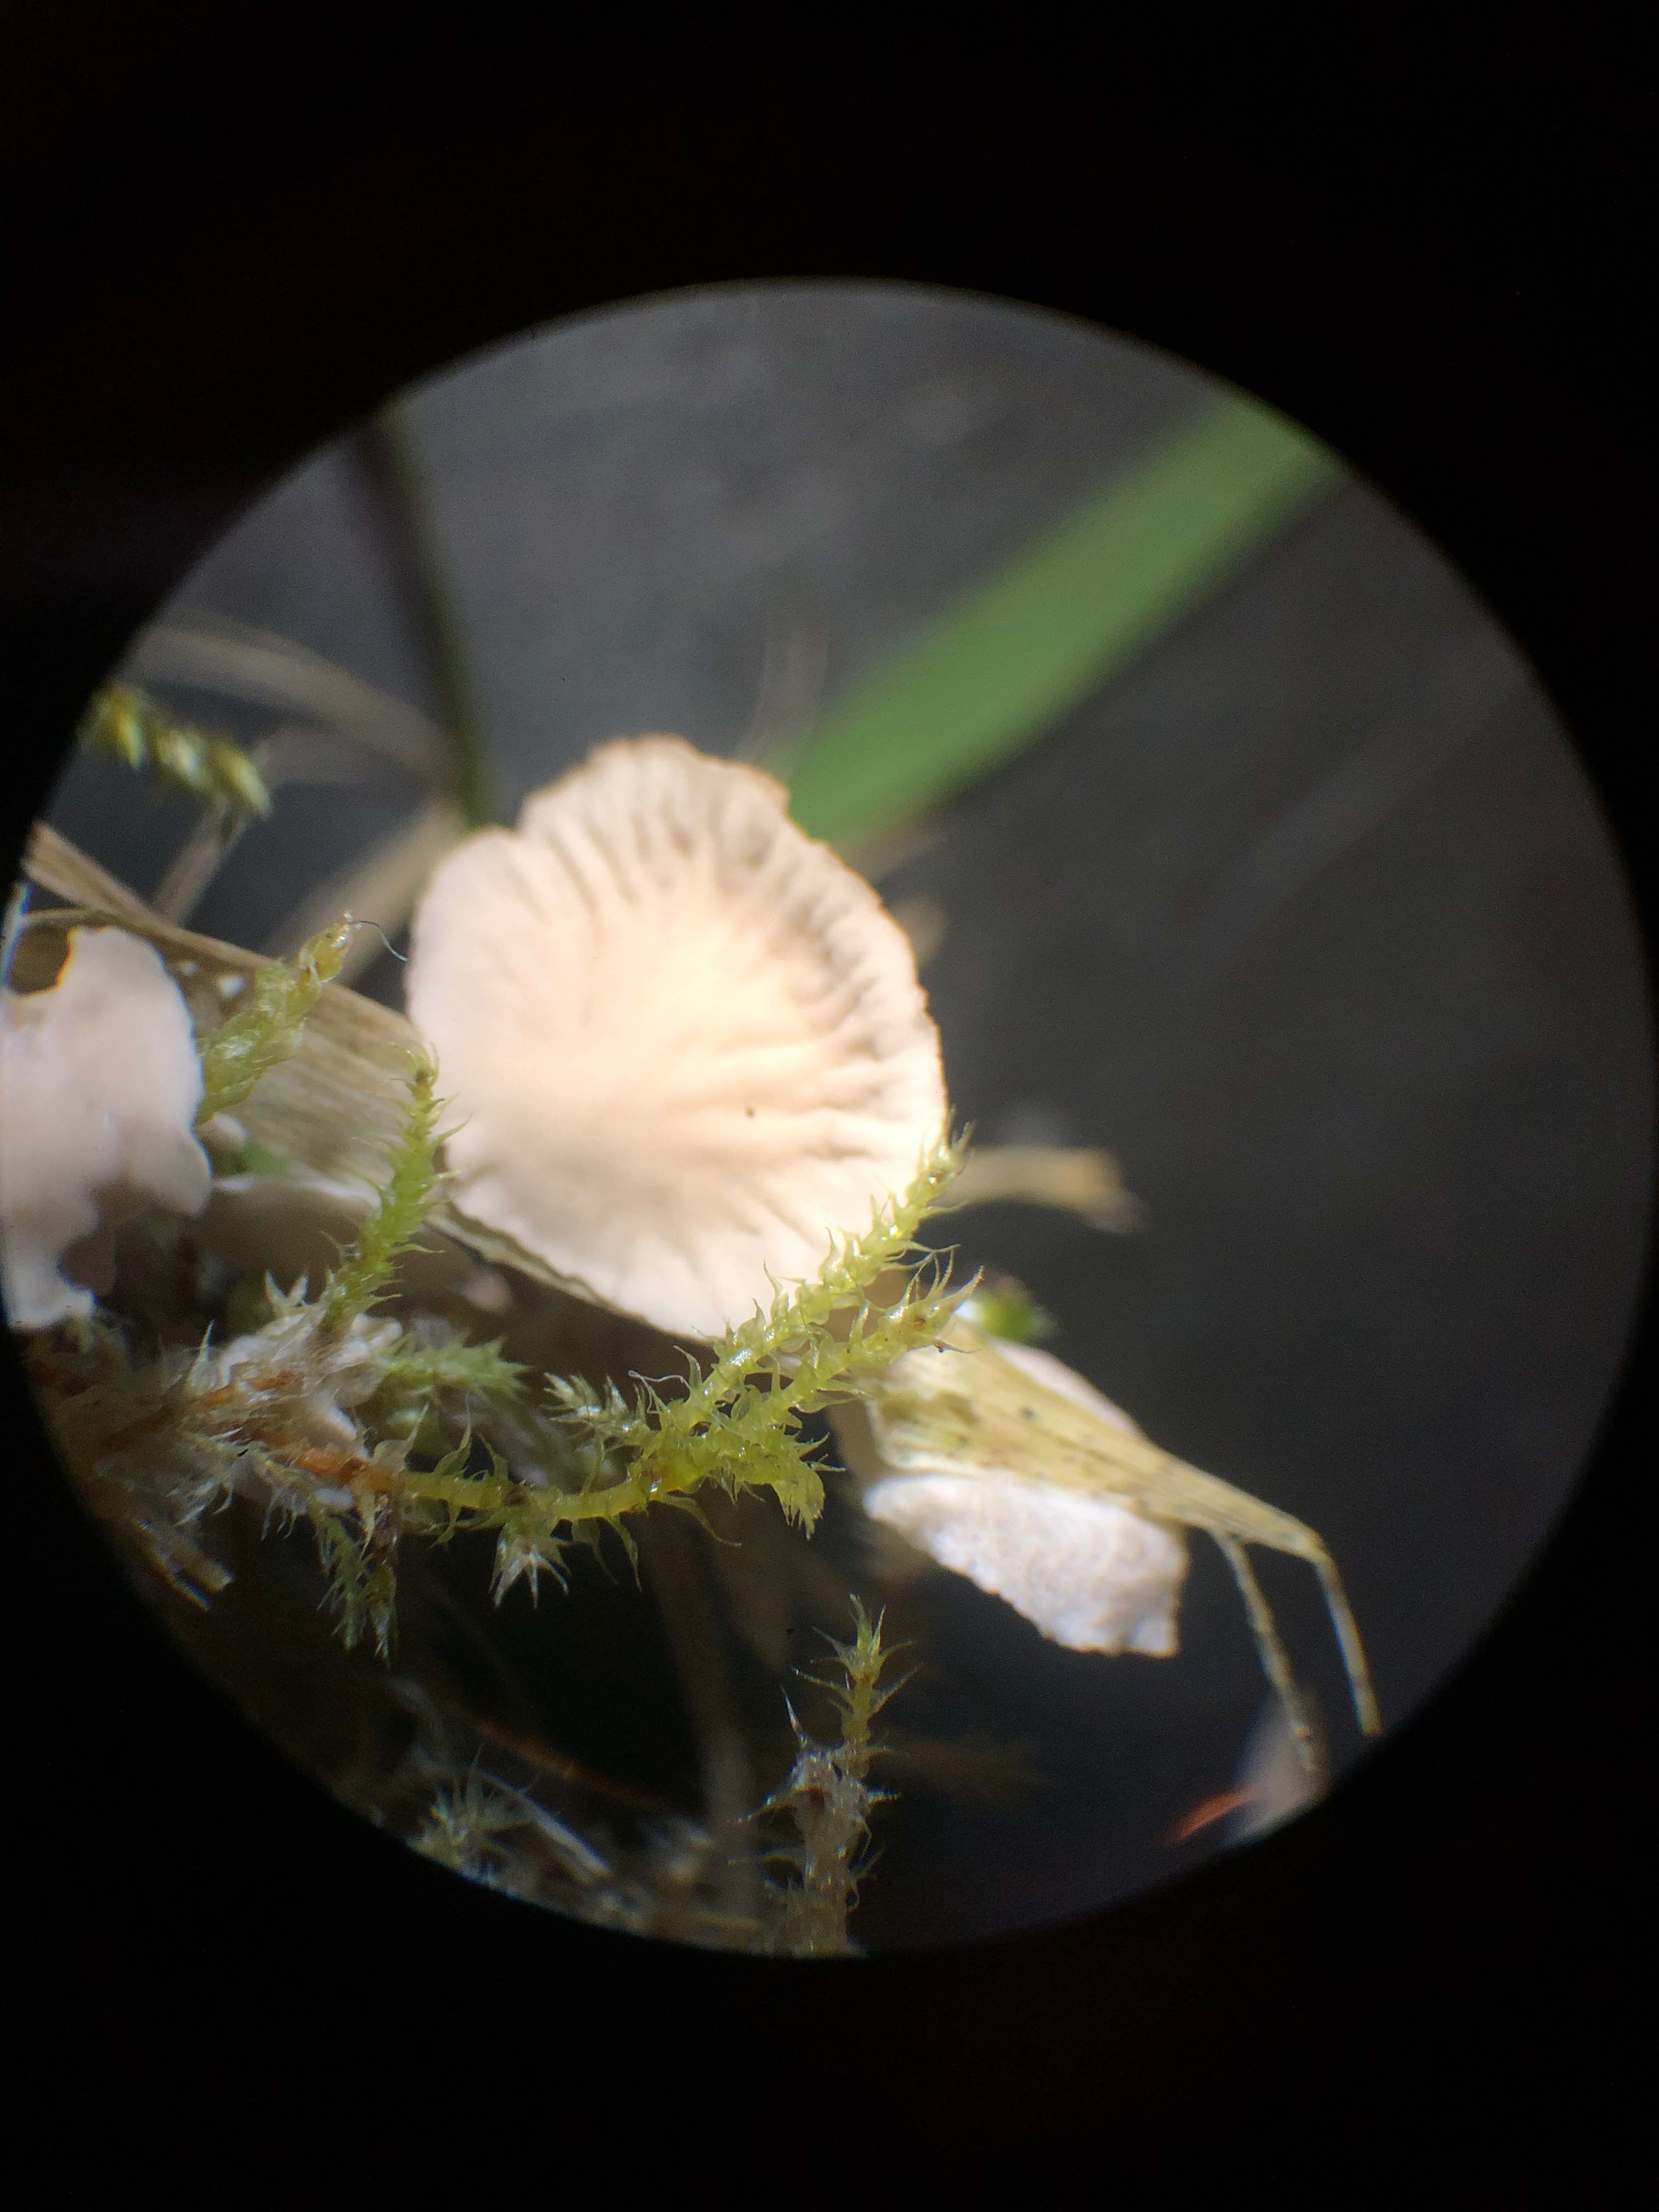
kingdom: Fungi
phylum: Basidiomycota
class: Agaricomycetes
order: Agaricales
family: Hygrophoraceae
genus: Arrhenia
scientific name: Arrhenia retiruga
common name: lille fontænehat
